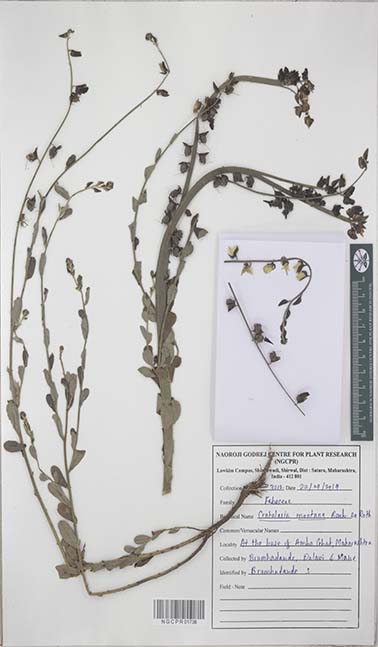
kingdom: Plantae
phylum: Tracheophyta
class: Magnoliopsida
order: Fabales
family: Fabaceae
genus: Crotalaria
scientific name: Crotalaria montana
